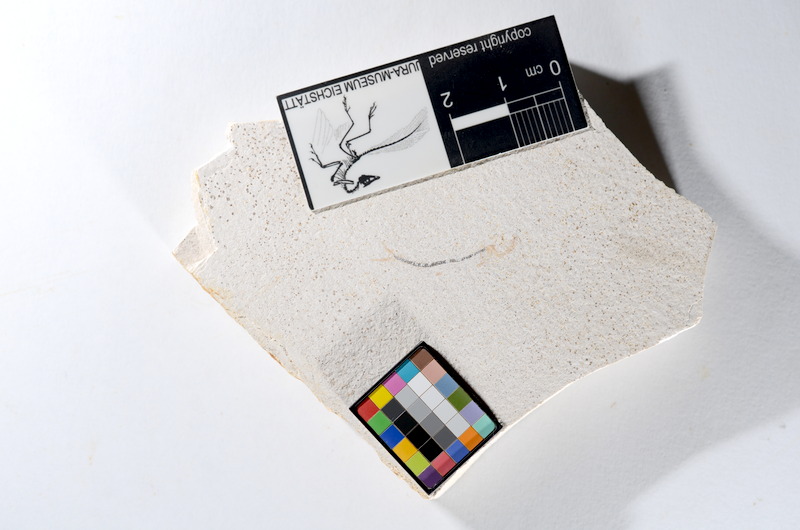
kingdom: Animalia
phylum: Chordata
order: Salmoniformes
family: Orthogonikleithridae
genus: Orthogonikleithrus
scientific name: Orthogonikleithrus hoelli
